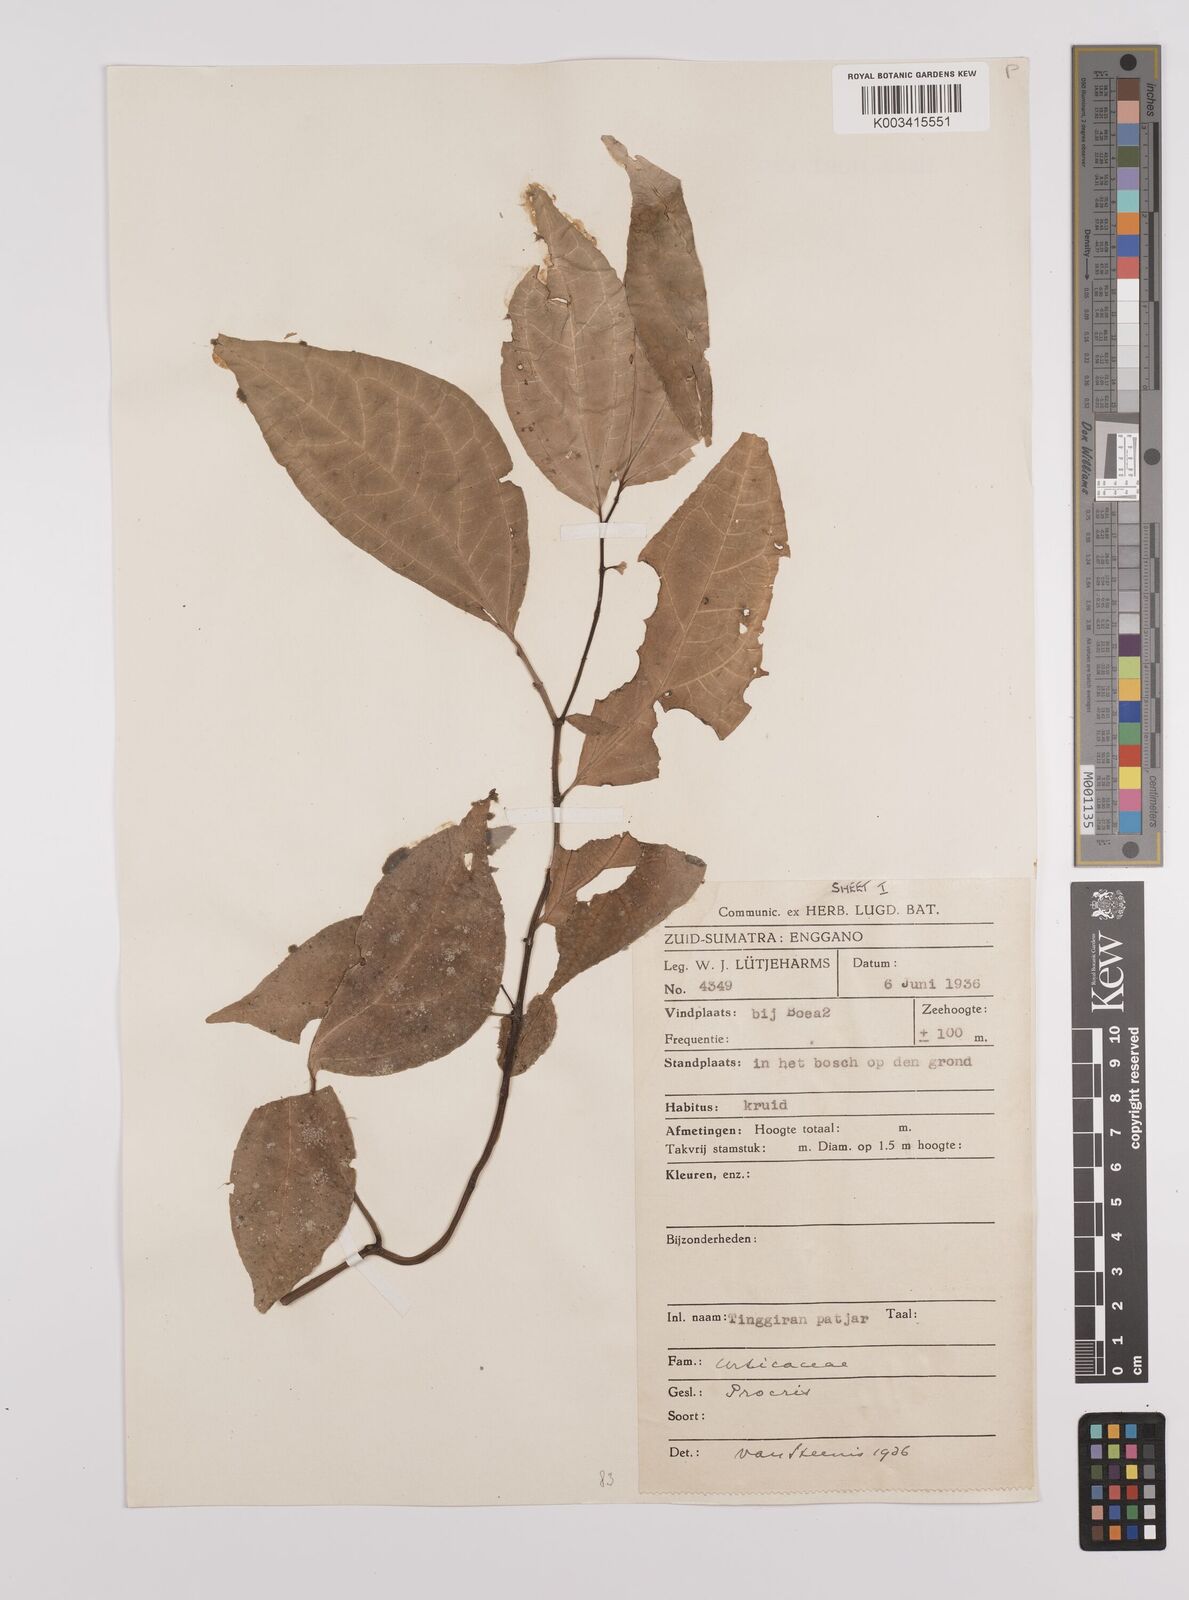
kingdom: Plantae
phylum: Tracheophyta
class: Magnoliopsida
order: Rosales
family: Urticaceae
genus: Elatostema
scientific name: Elatostema
